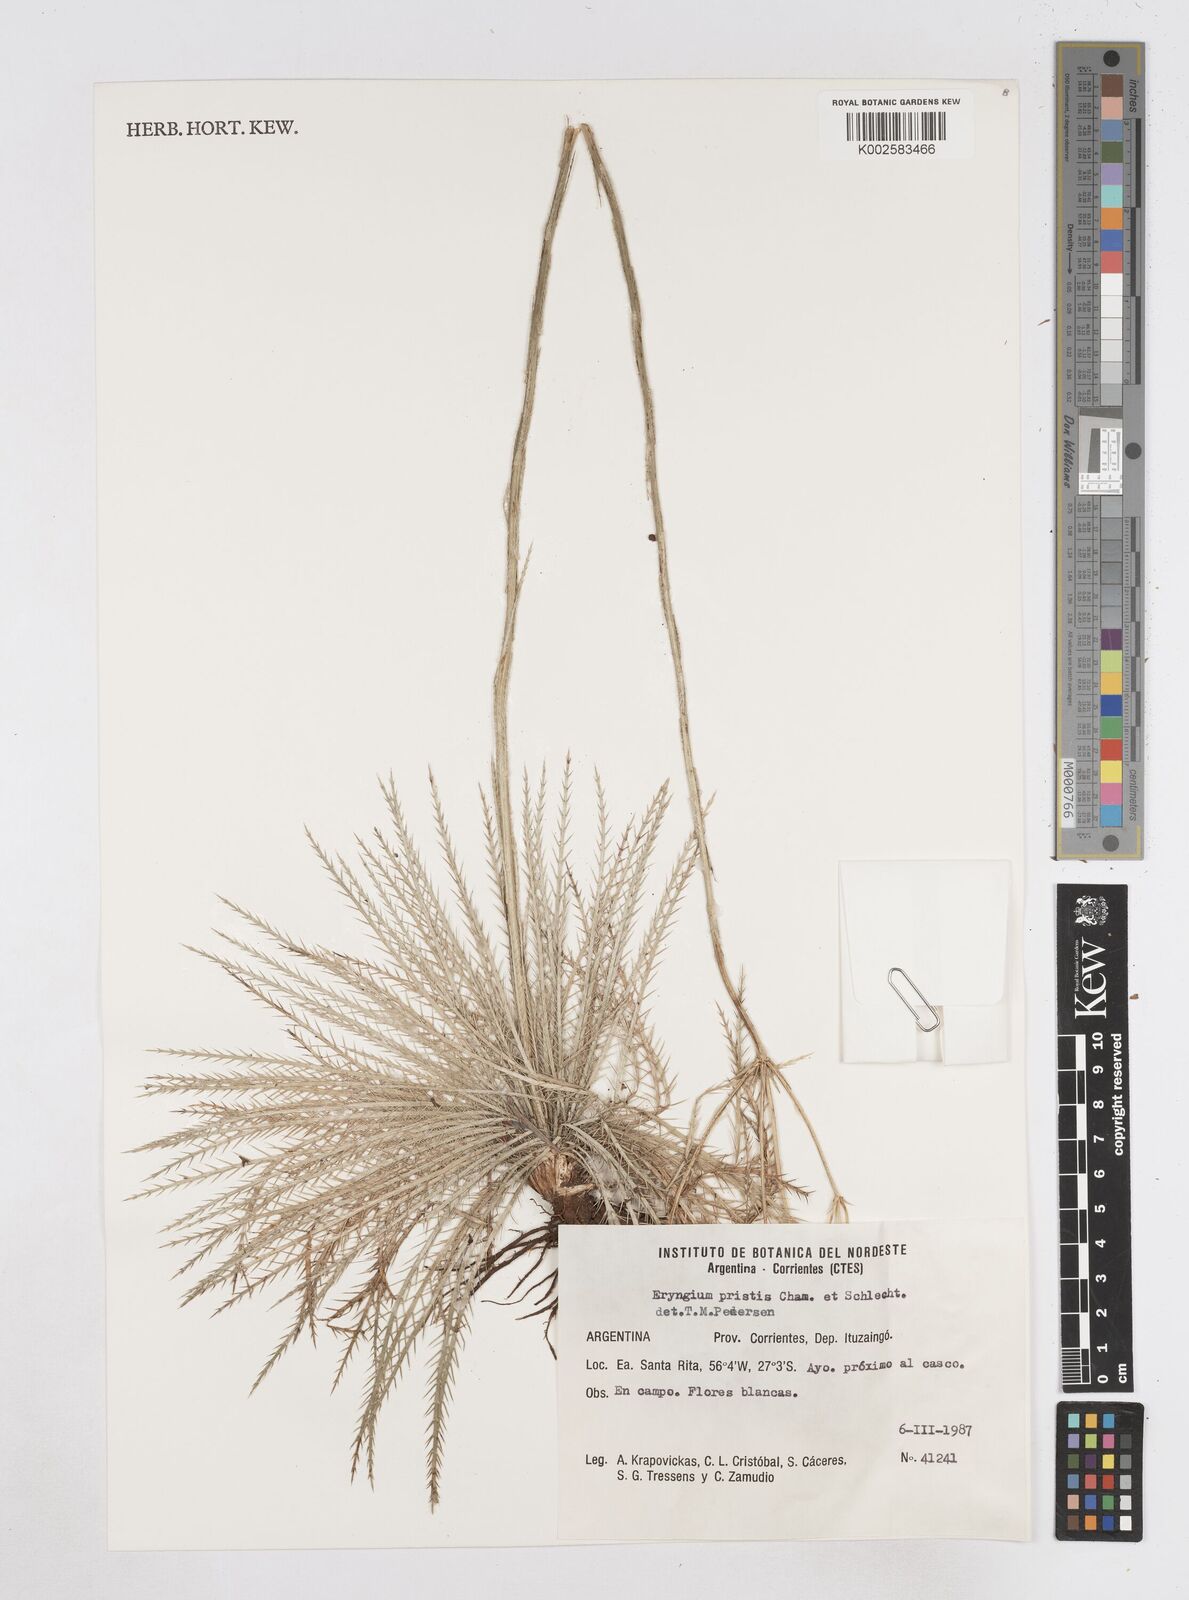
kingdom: Plantae
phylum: Tracheophyta
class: Magnoliopsida
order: Apiales
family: Apiaceae
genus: Eryngium
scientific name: Eryngium pristis
